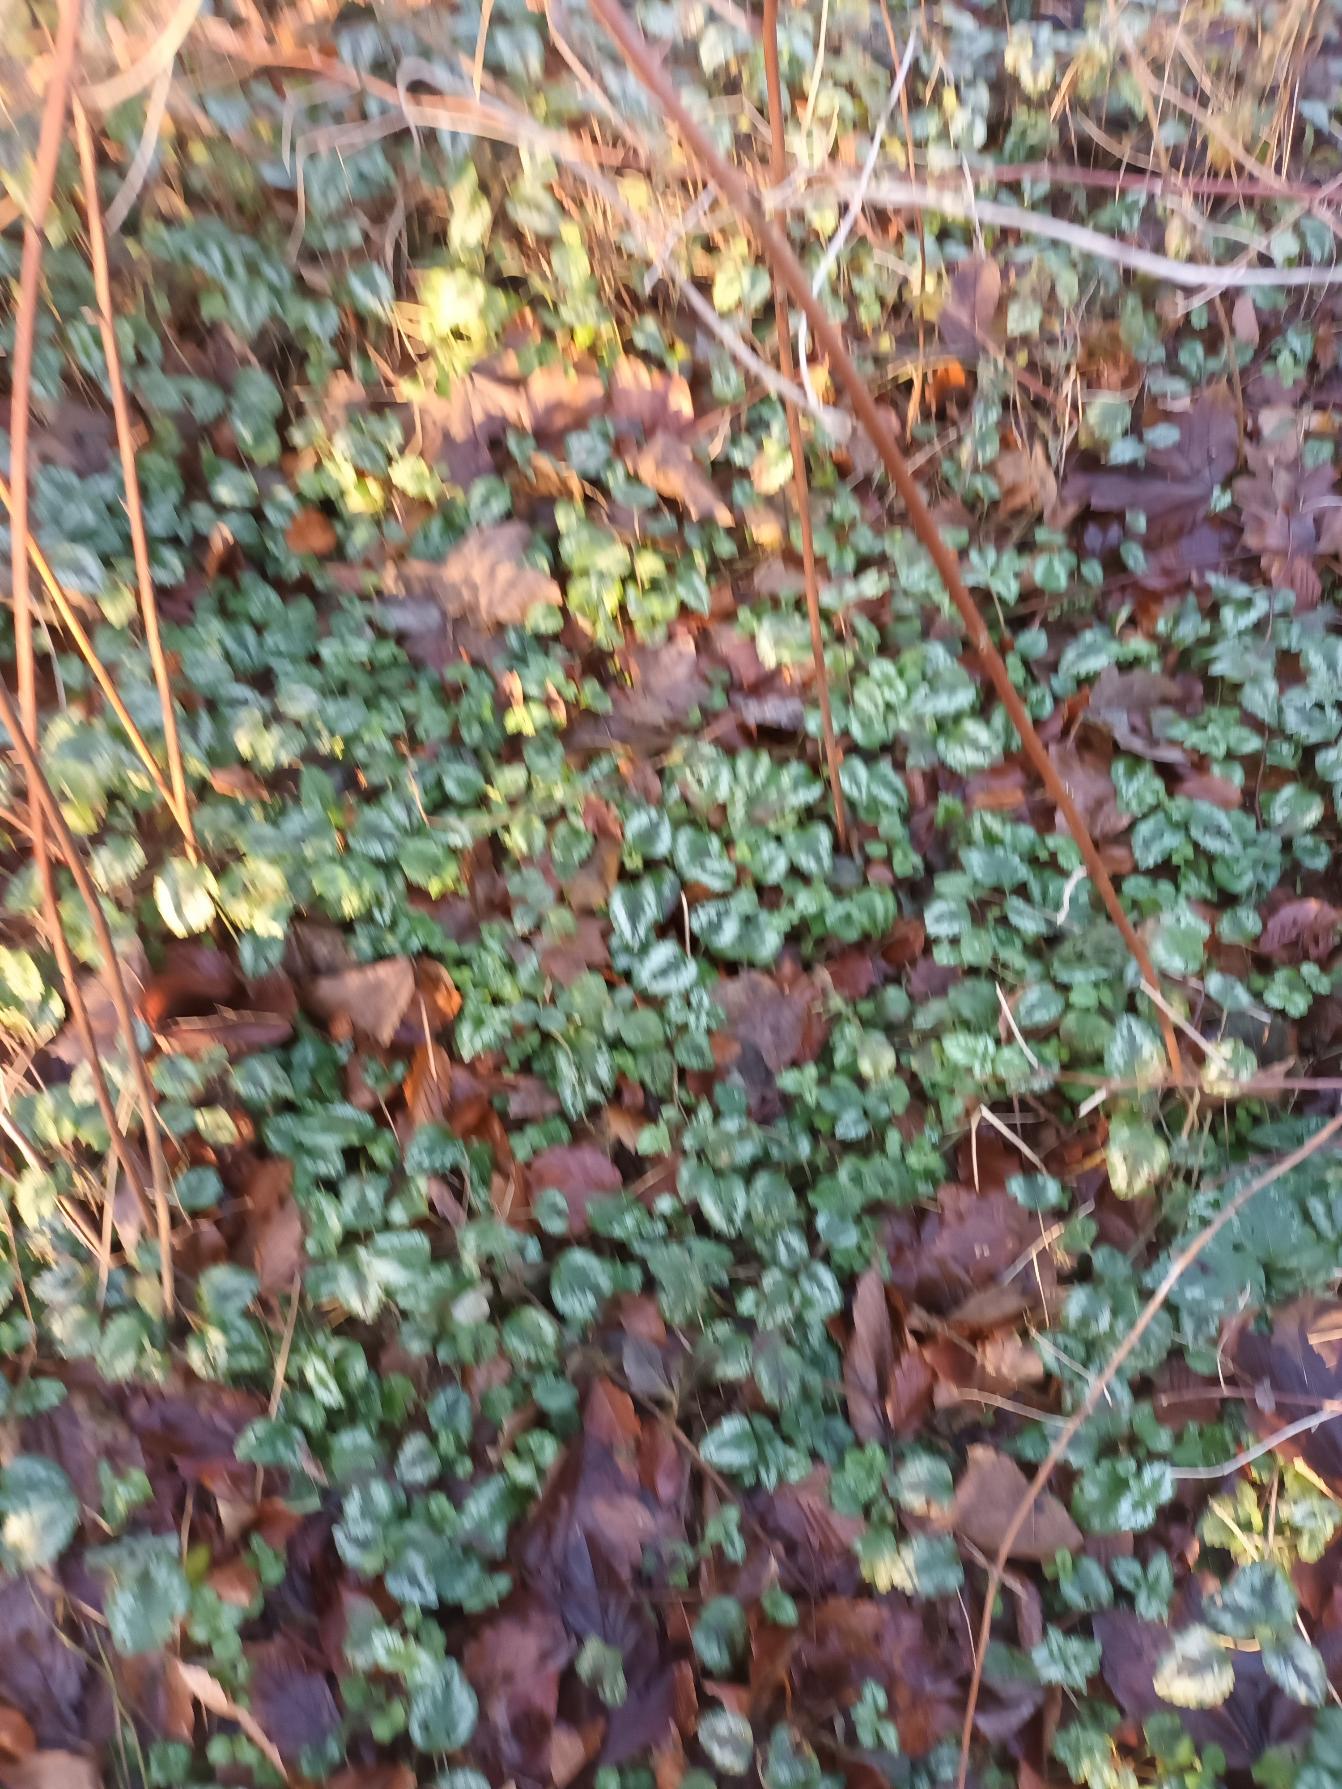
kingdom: Plantae
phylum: Tracheophyta
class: Magnoliopsida
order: Lamiales
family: Lamiaceae
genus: Lamium
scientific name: Lamium galeobdolon
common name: Have-guldnælde
